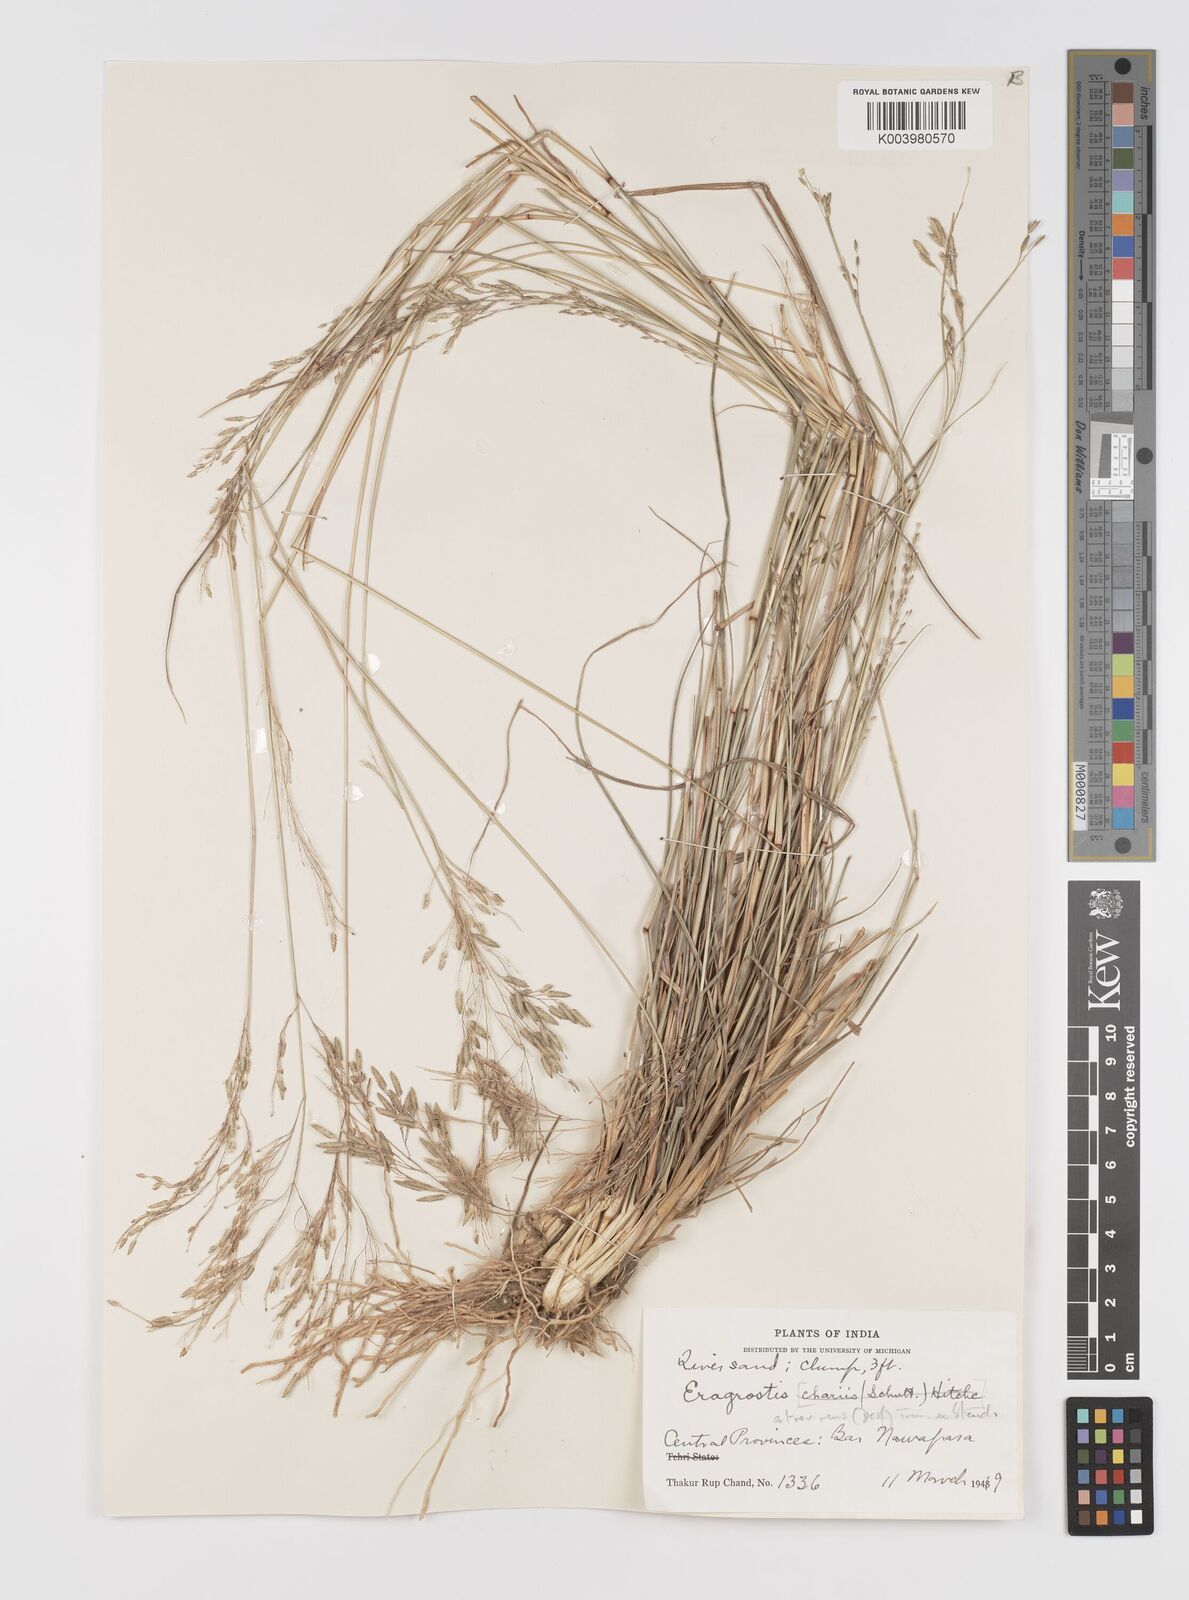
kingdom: Plantae
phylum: Tracheophyta
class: Liliopsida
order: Poales
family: Poaceae
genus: Eragrostis
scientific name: Eragrostis atrovirens
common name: Thalia lovegrass
